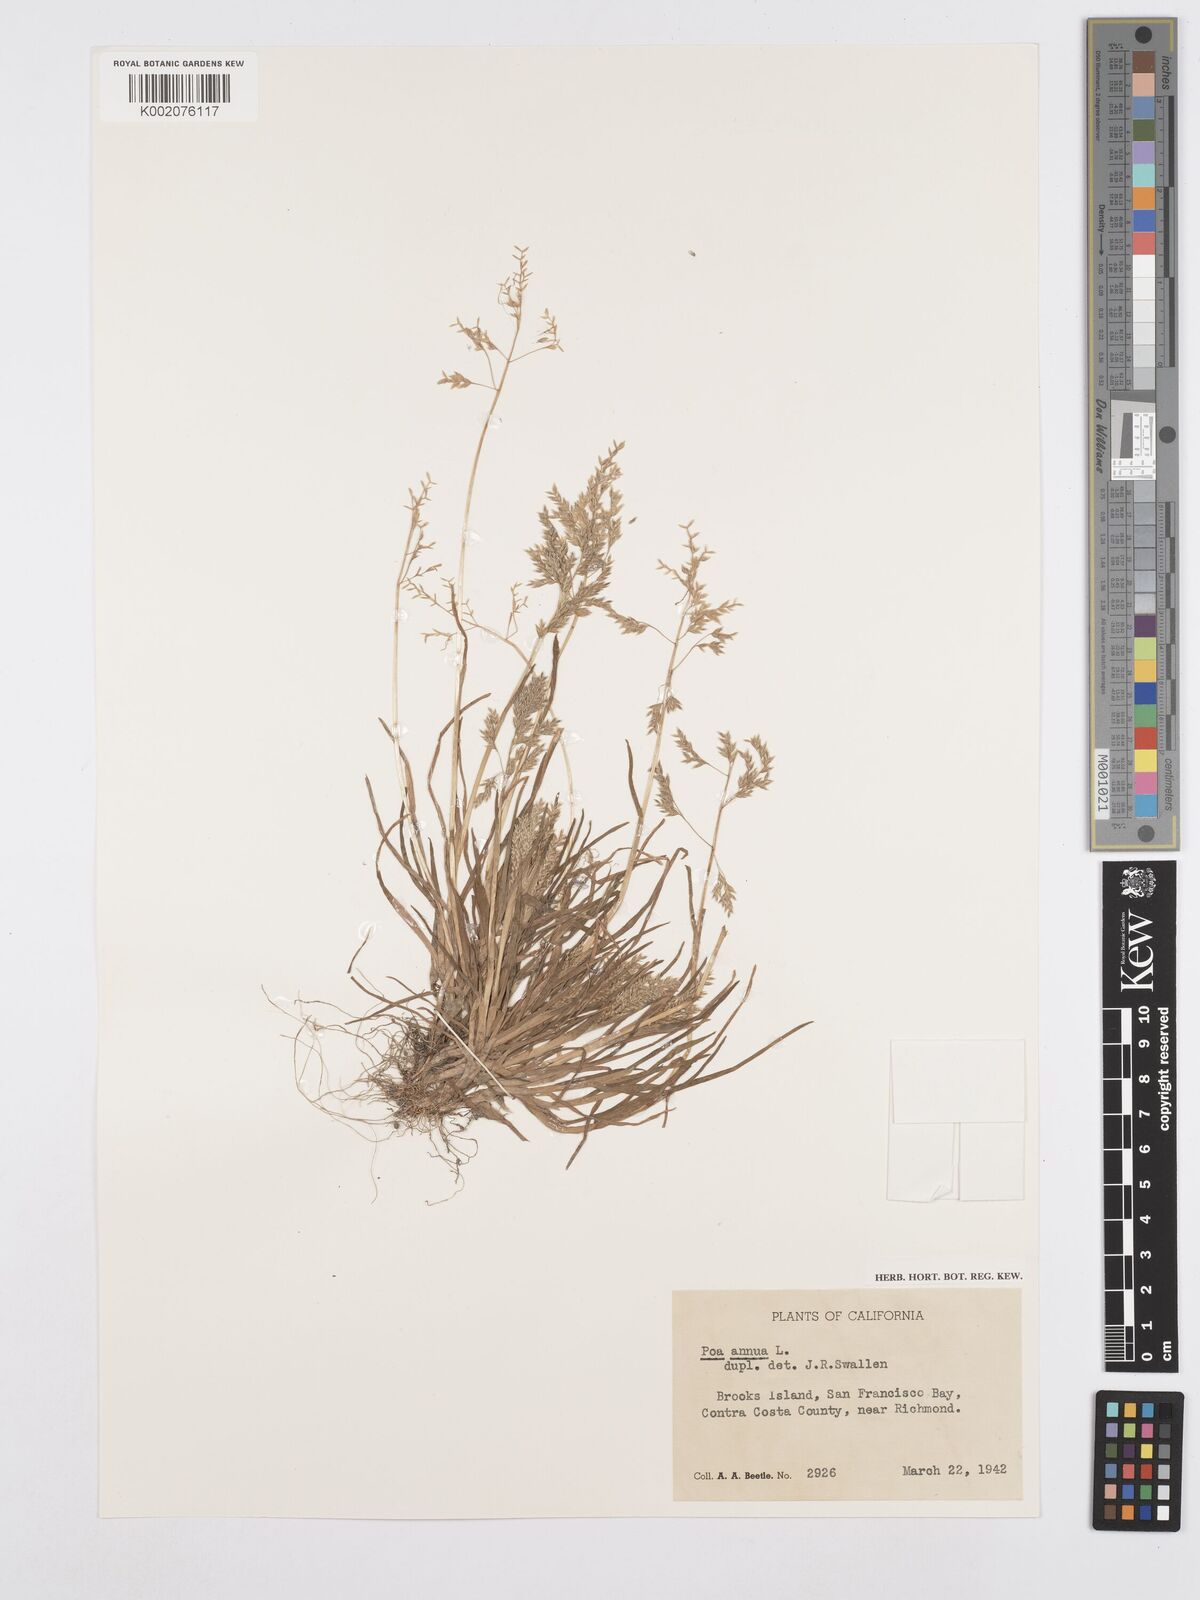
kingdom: Plantae
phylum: Tracheophyta
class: Liliopsida
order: Poales
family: Poaceae
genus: Poa
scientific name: Poa annua
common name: Annual bluegrass
